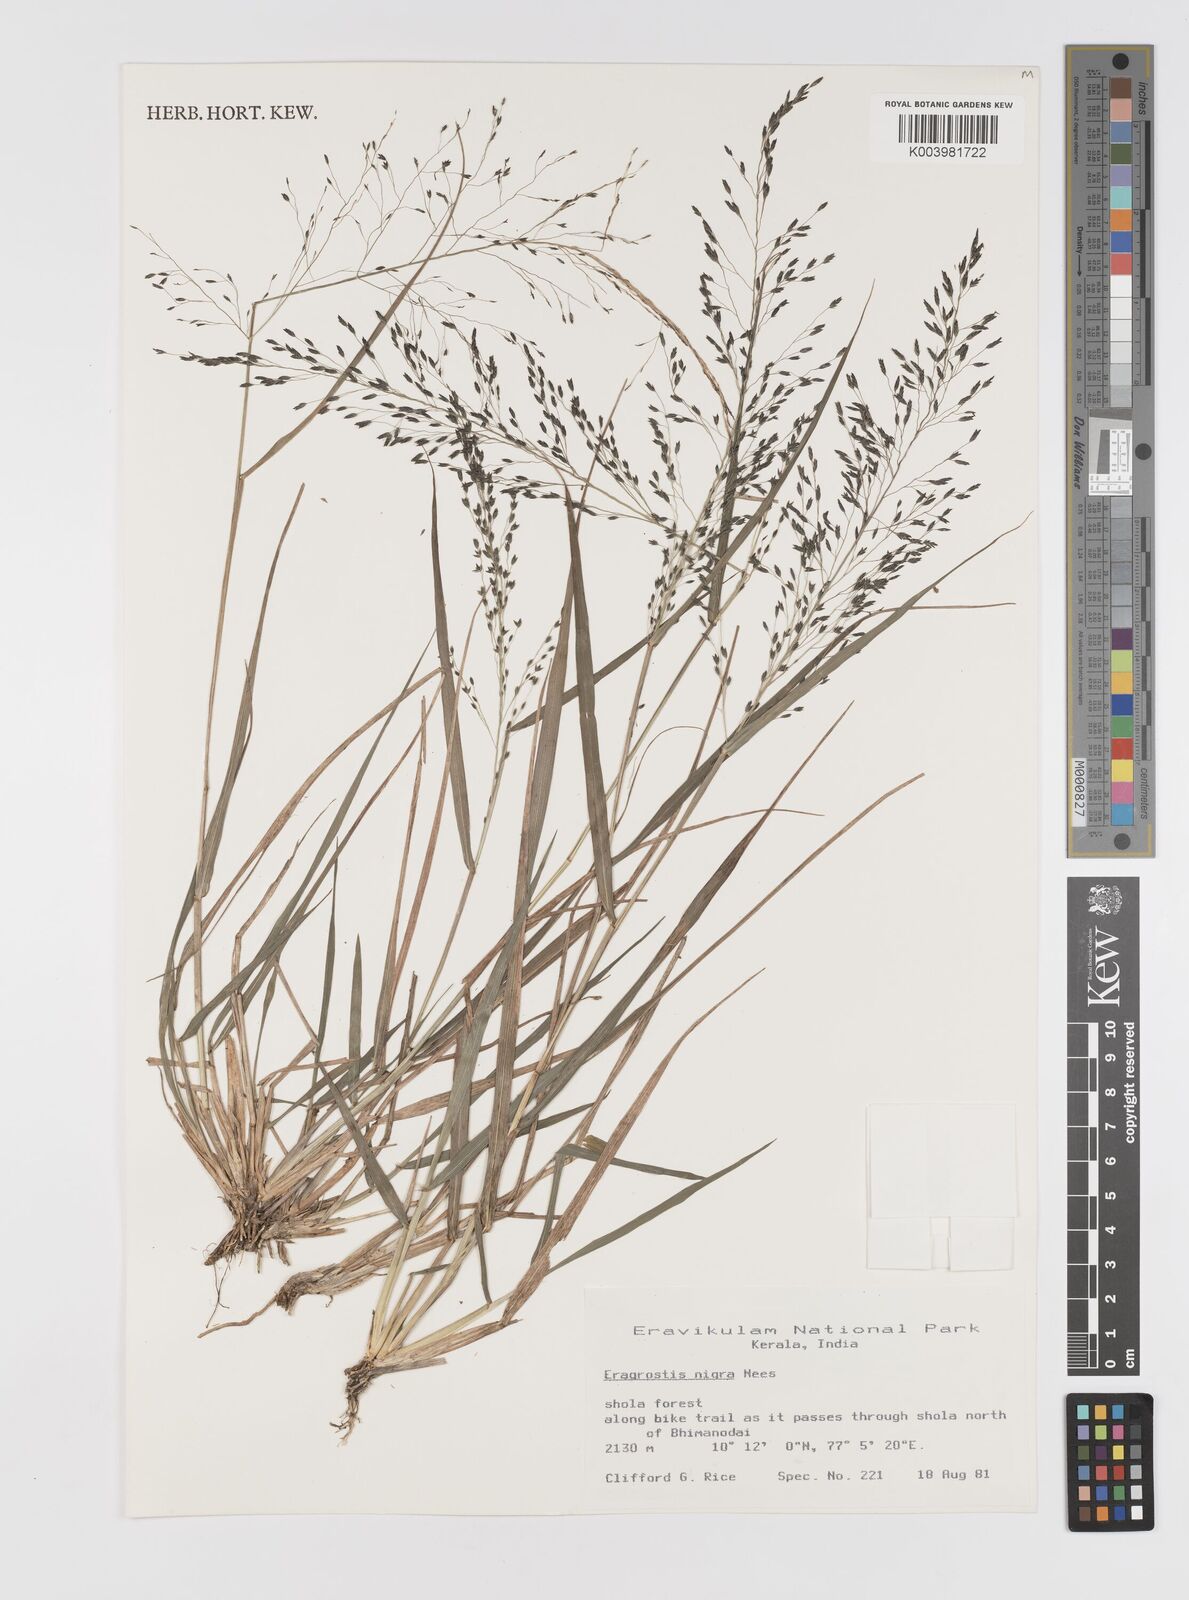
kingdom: Plantae
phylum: Tracheophyta
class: Liliopsida
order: Poales
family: Poaceae
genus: Eragrostis
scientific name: Eragrostis nigra
